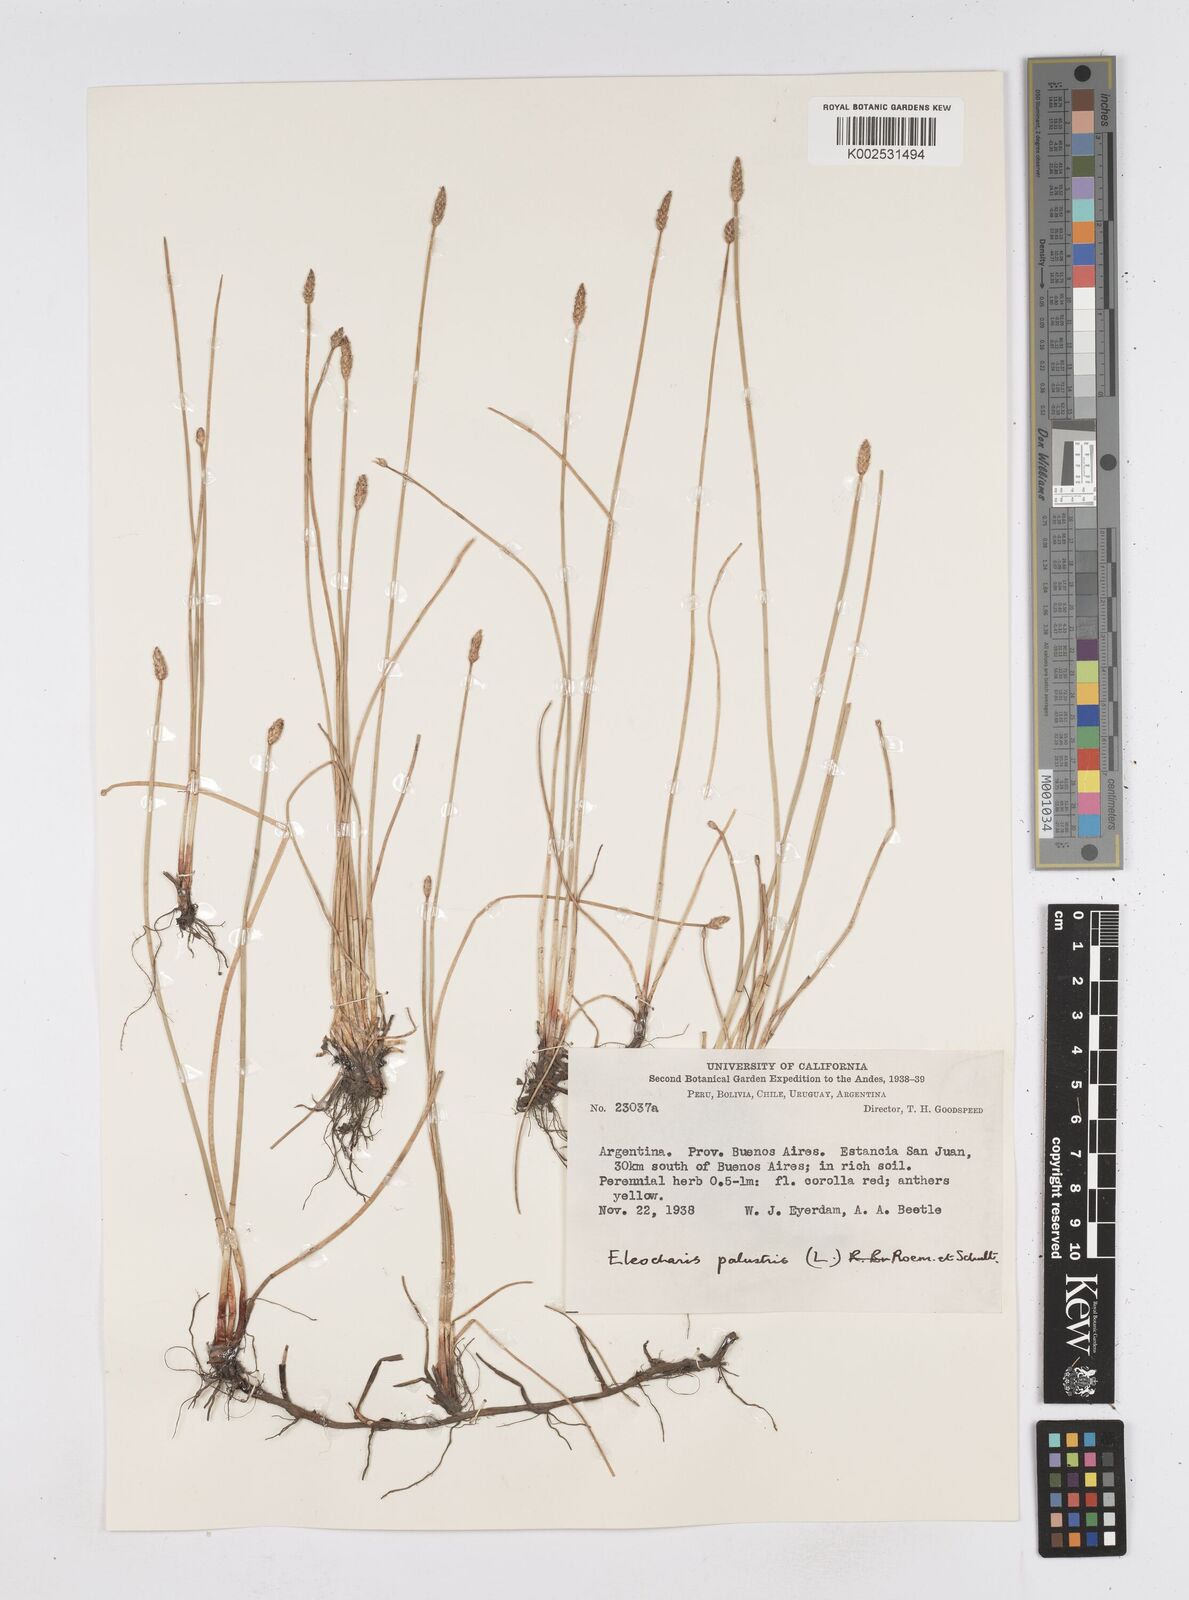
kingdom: Plantae
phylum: Tracheophyta
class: Liliopsida
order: Poales
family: Cyperaceae
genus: Eleocharis
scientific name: Eleocharis palustris
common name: Common spike-rush
